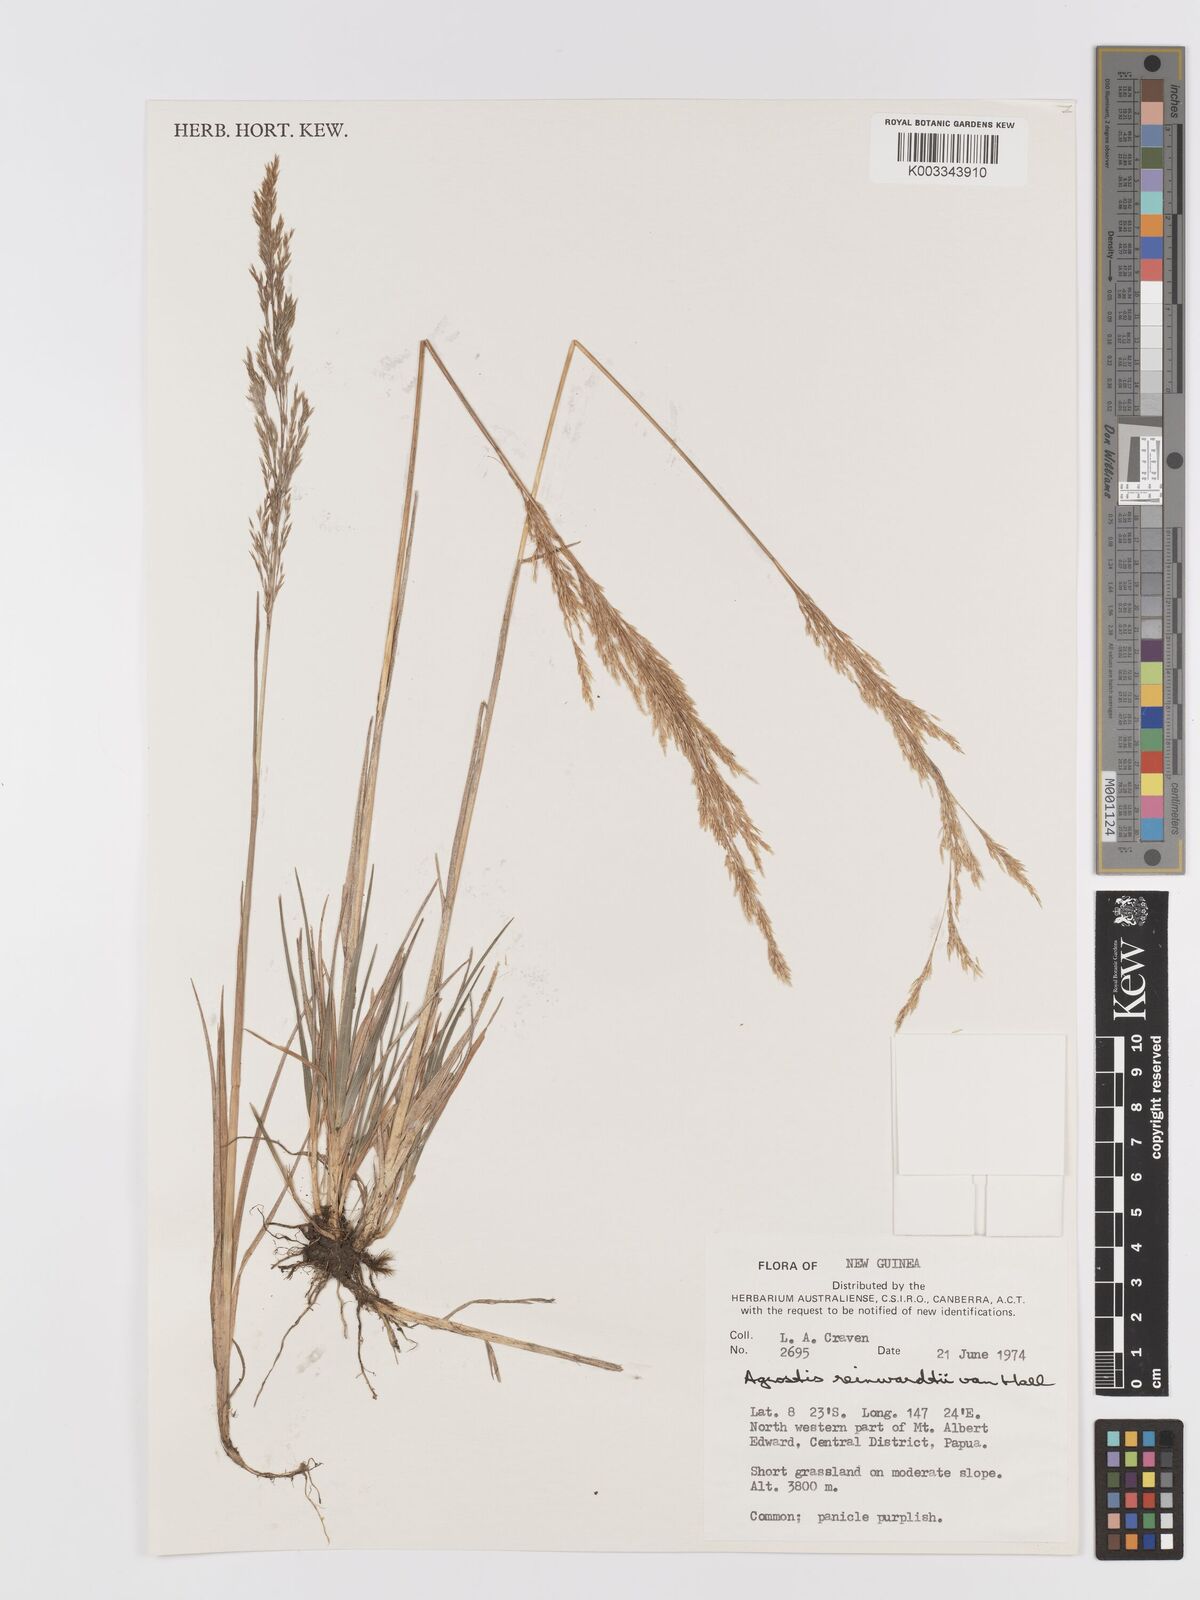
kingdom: Plantae
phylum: Tracheophyta
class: Liliopsida
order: Poales
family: Poaceae
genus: Agrostis
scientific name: Agrostis infirma
